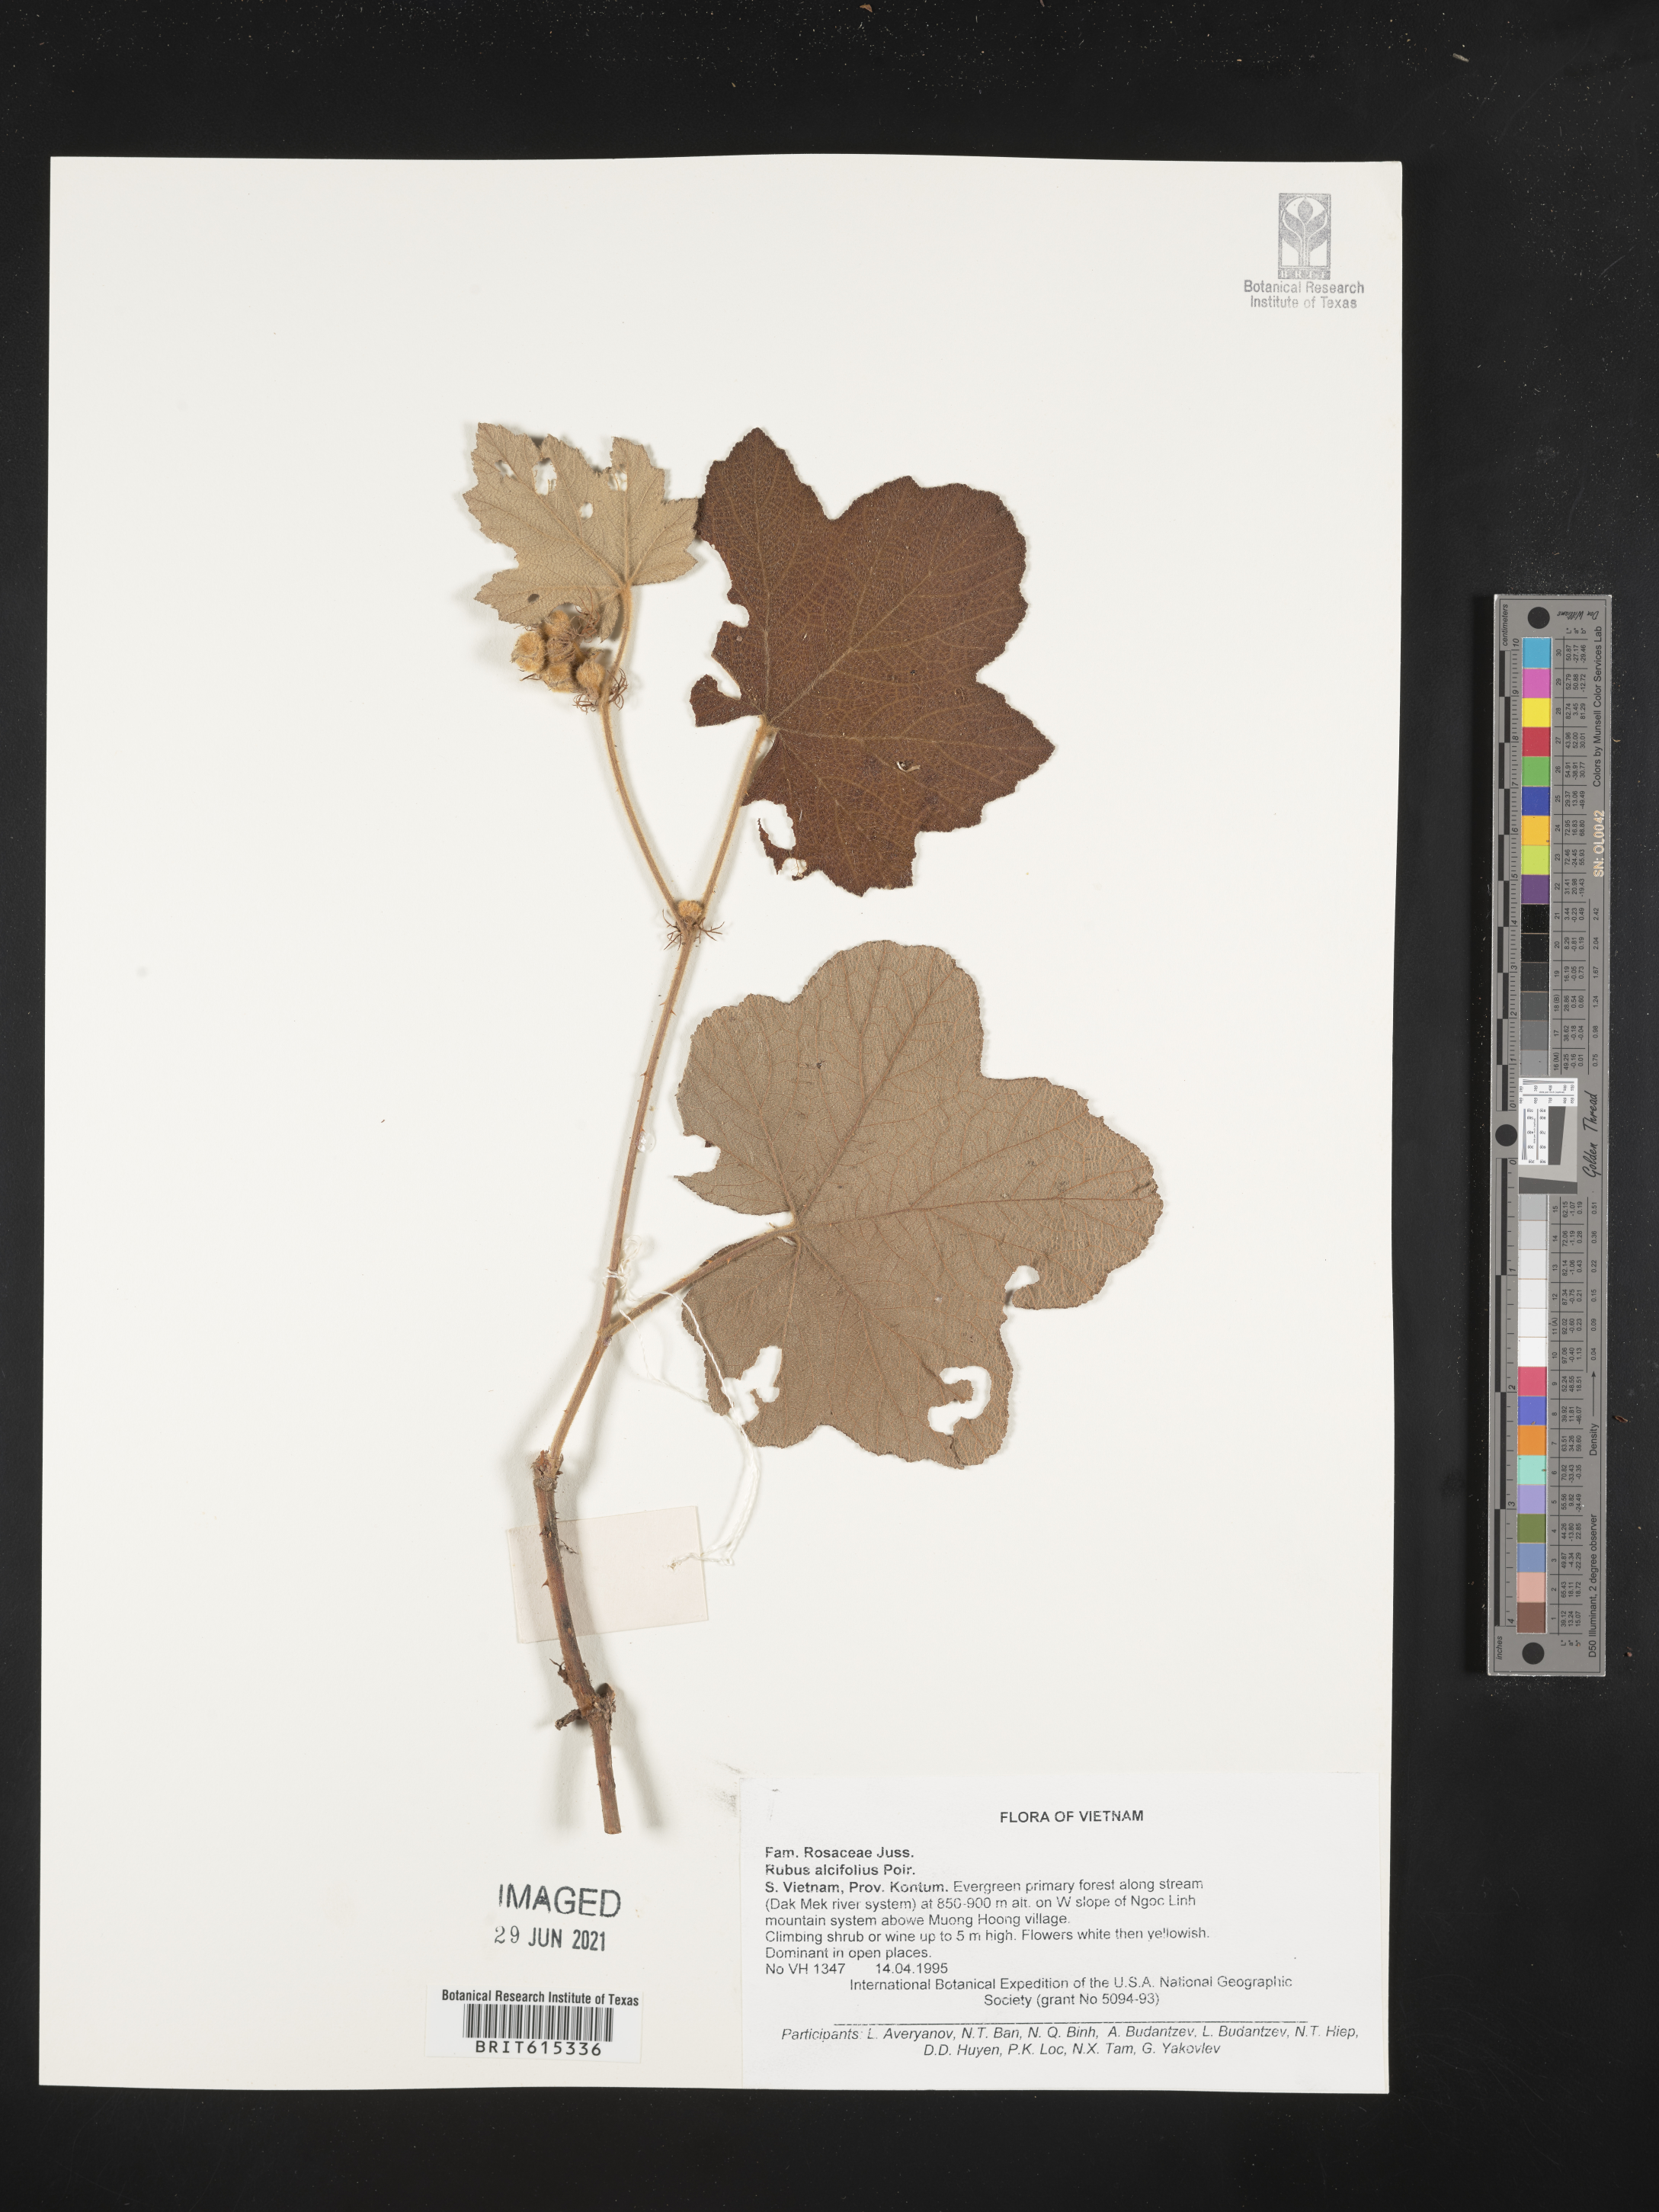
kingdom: Plantae
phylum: Tracheophyta
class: Magnoliopsida
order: Rosales
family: Rosaceae
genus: Rubus
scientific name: Rubus alceifolius
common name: Giant bramble
